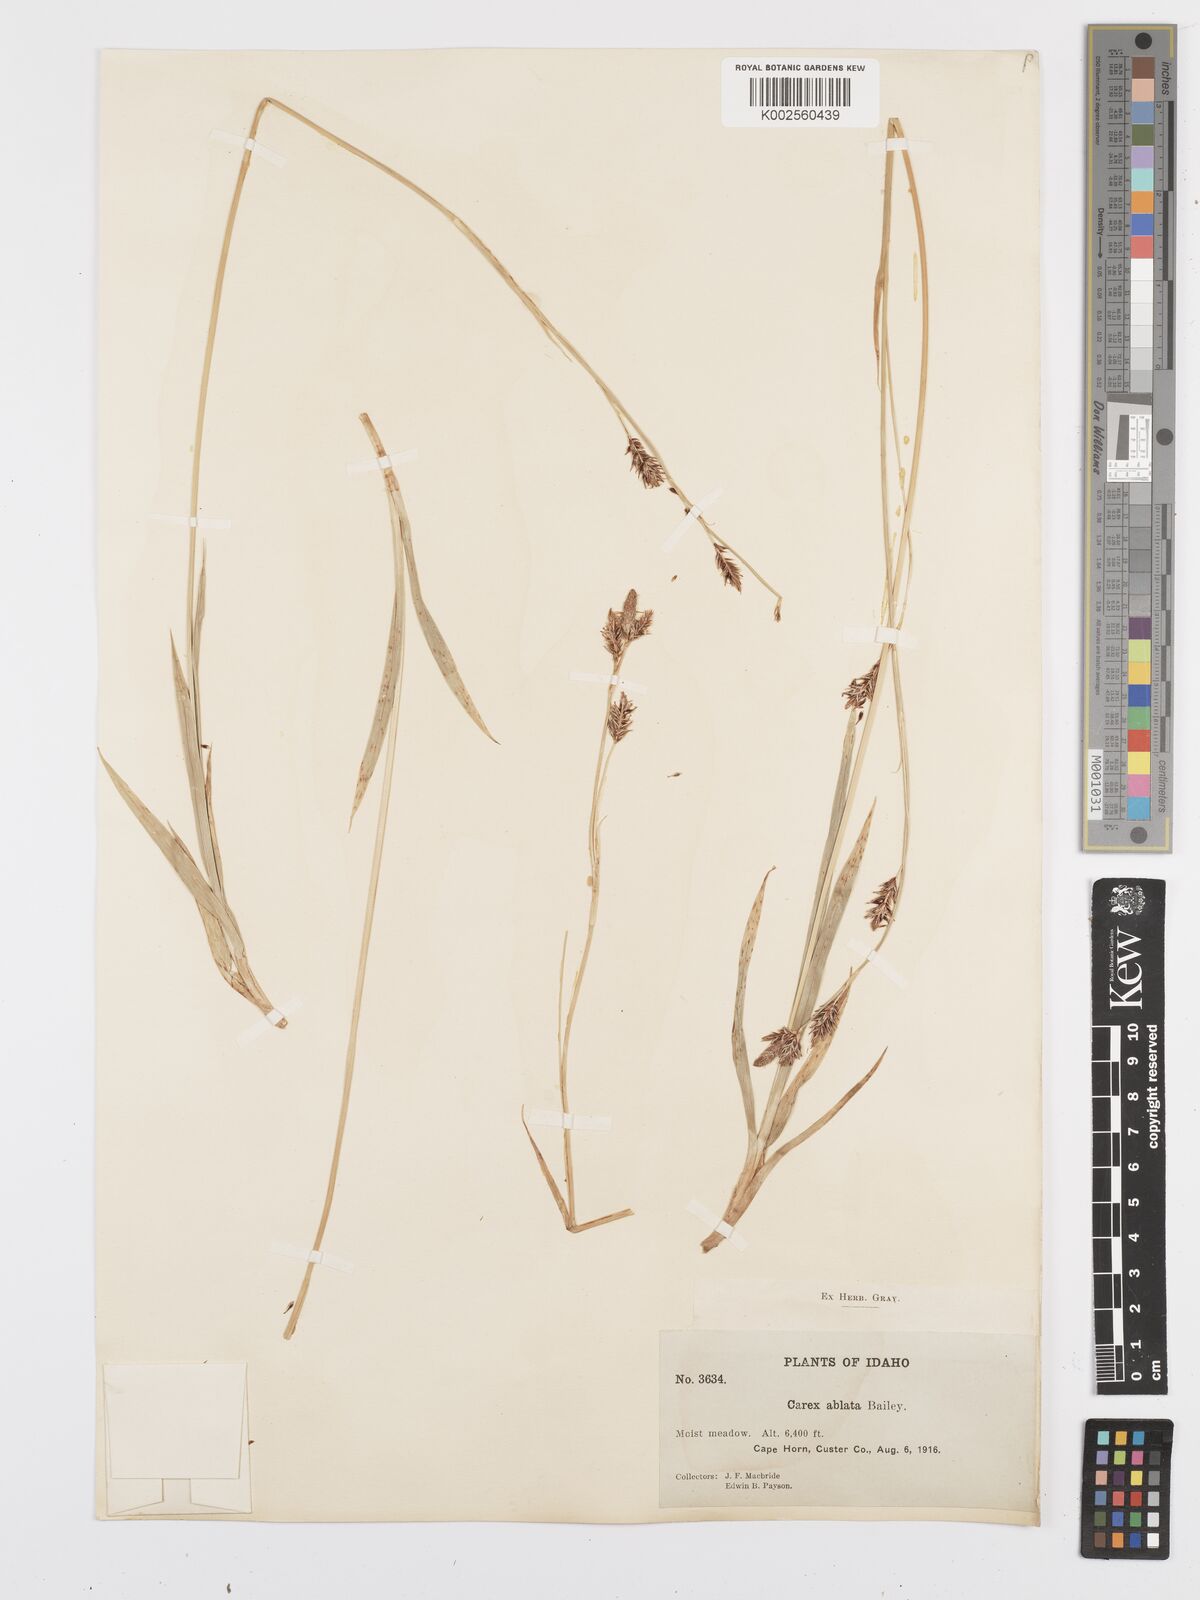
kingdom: Plantae
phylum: Tracheophyta
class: Liliopsida
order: Poales
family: Cyperaceae
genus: Carex
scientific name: Carex luzulina
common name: Spring sedge
